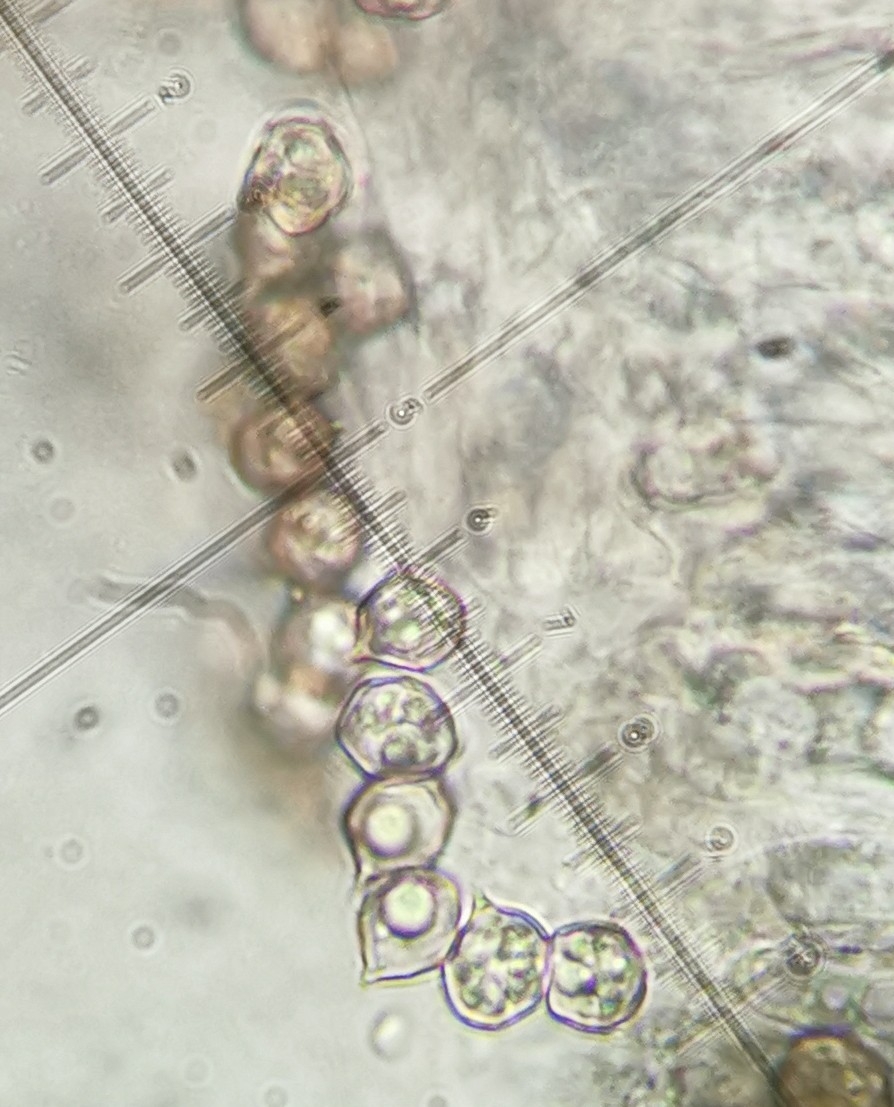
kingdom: Fungi
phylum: Basidiomycota
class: Agaricomycetes
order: Agaricales
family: Entolomataceae
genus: Entoloma
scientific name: Entoloma sericeum
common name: silkeglinsende rødblad
